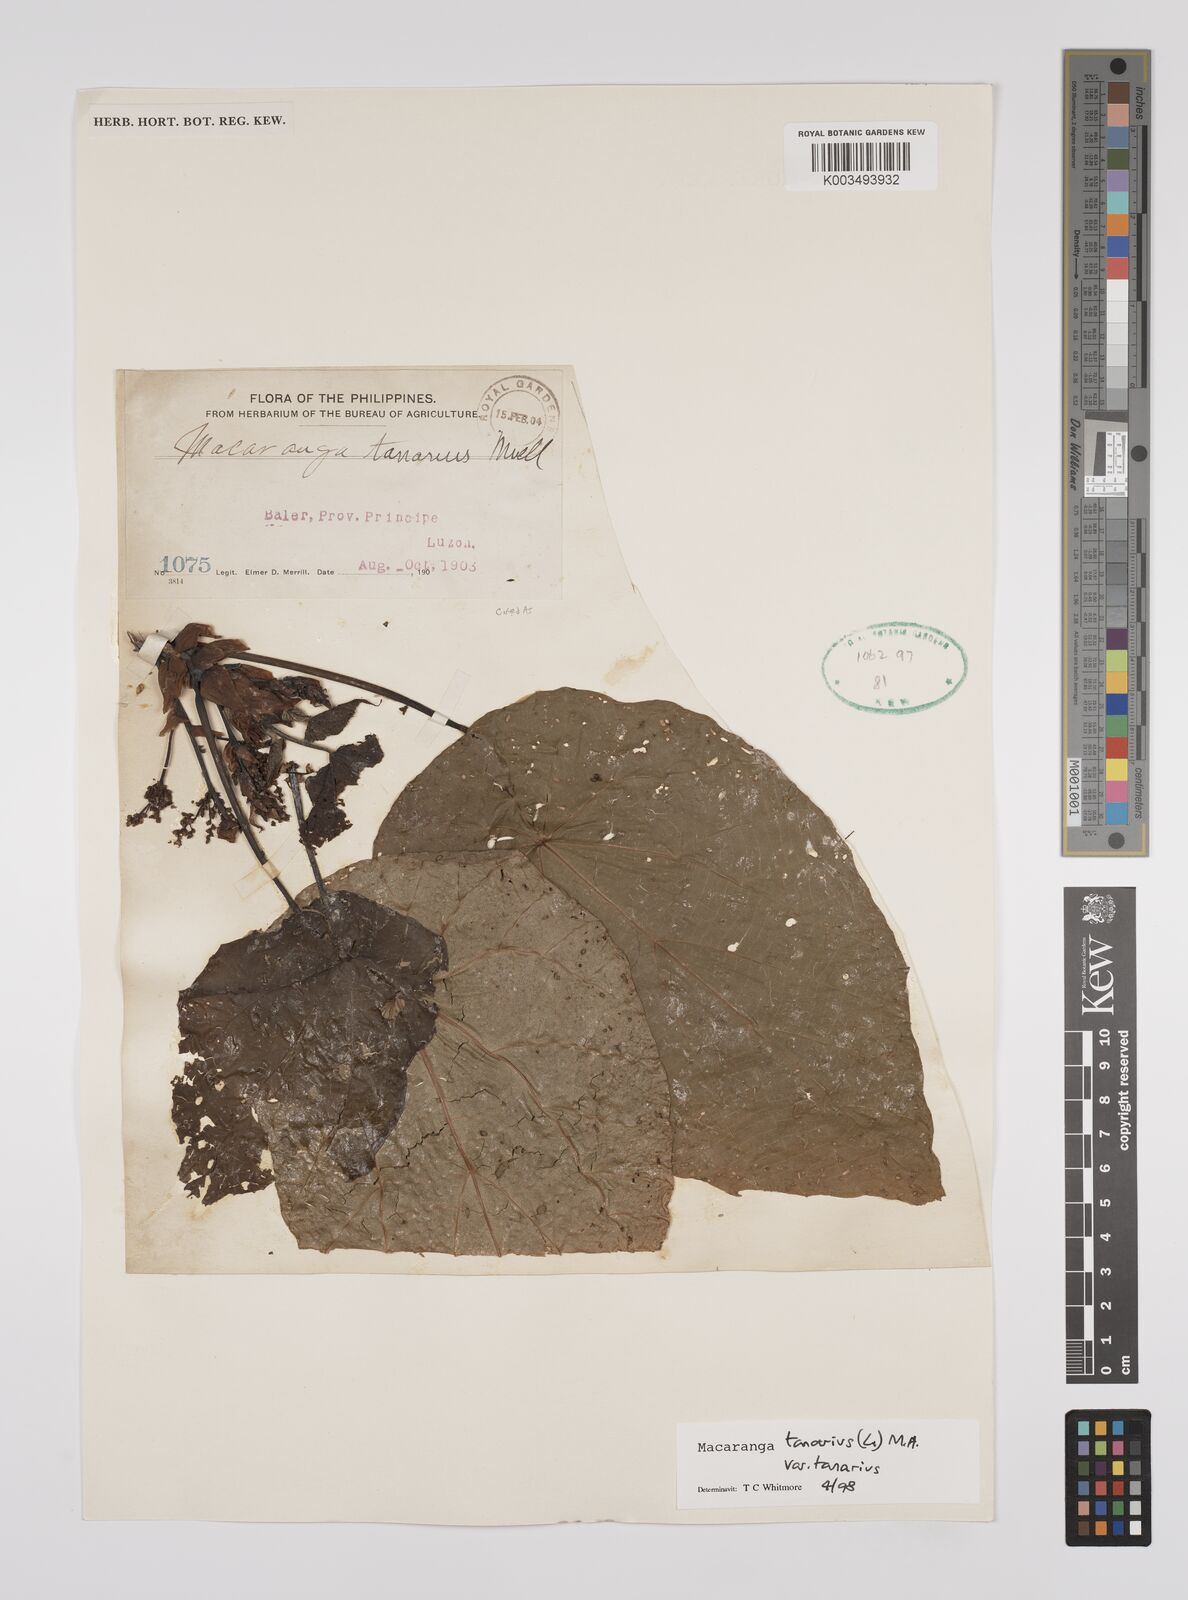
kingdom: Plantae
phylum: Tracheophyta
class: Magnoliopsida
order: Malpighiales
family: Euphorbiaceae
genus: Macaranga
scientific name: Macaranga tanarius
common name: Parasol leaf tree
